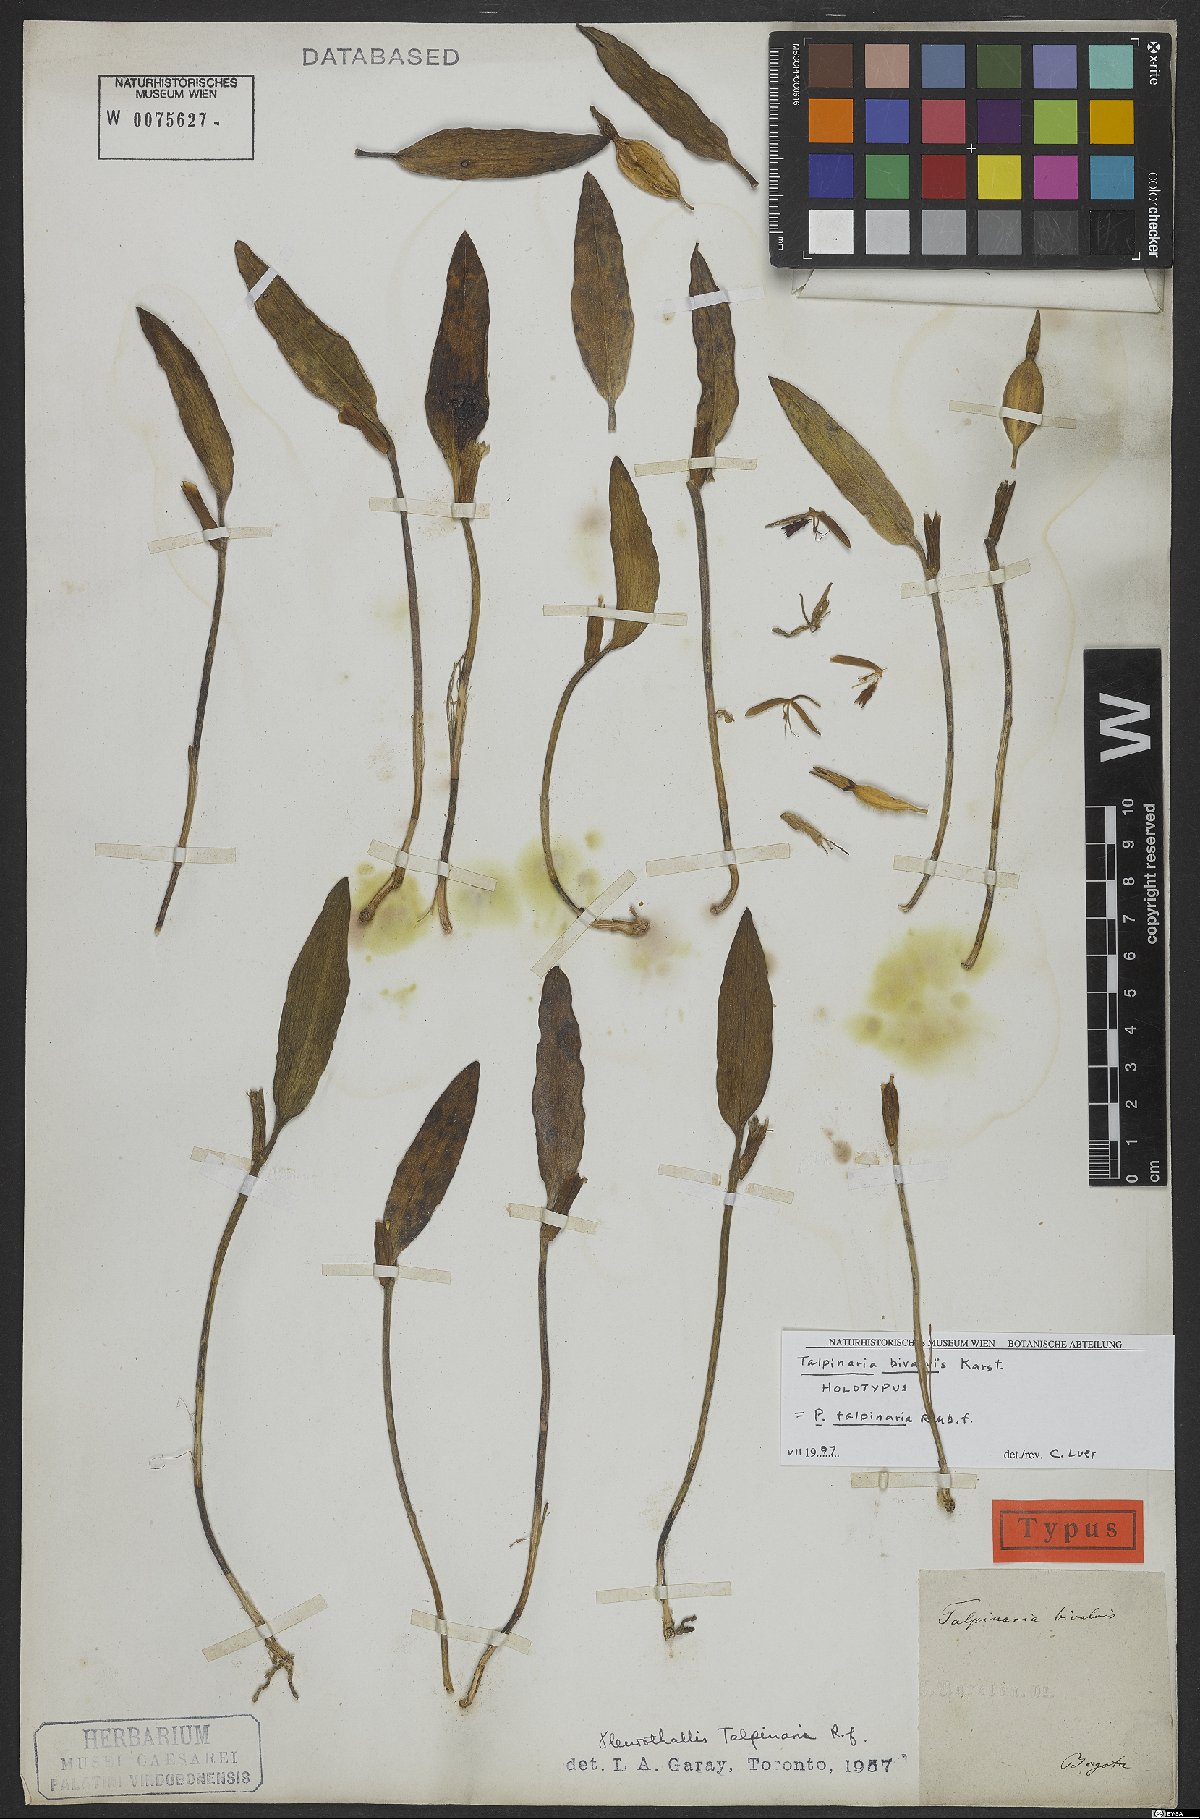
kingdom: Plantae
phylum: Tracheophyta
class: Liliopsida
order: Asparagales
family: Orchidaceae
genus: Pleurothallis
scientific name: Pleurothallis talpinaria
